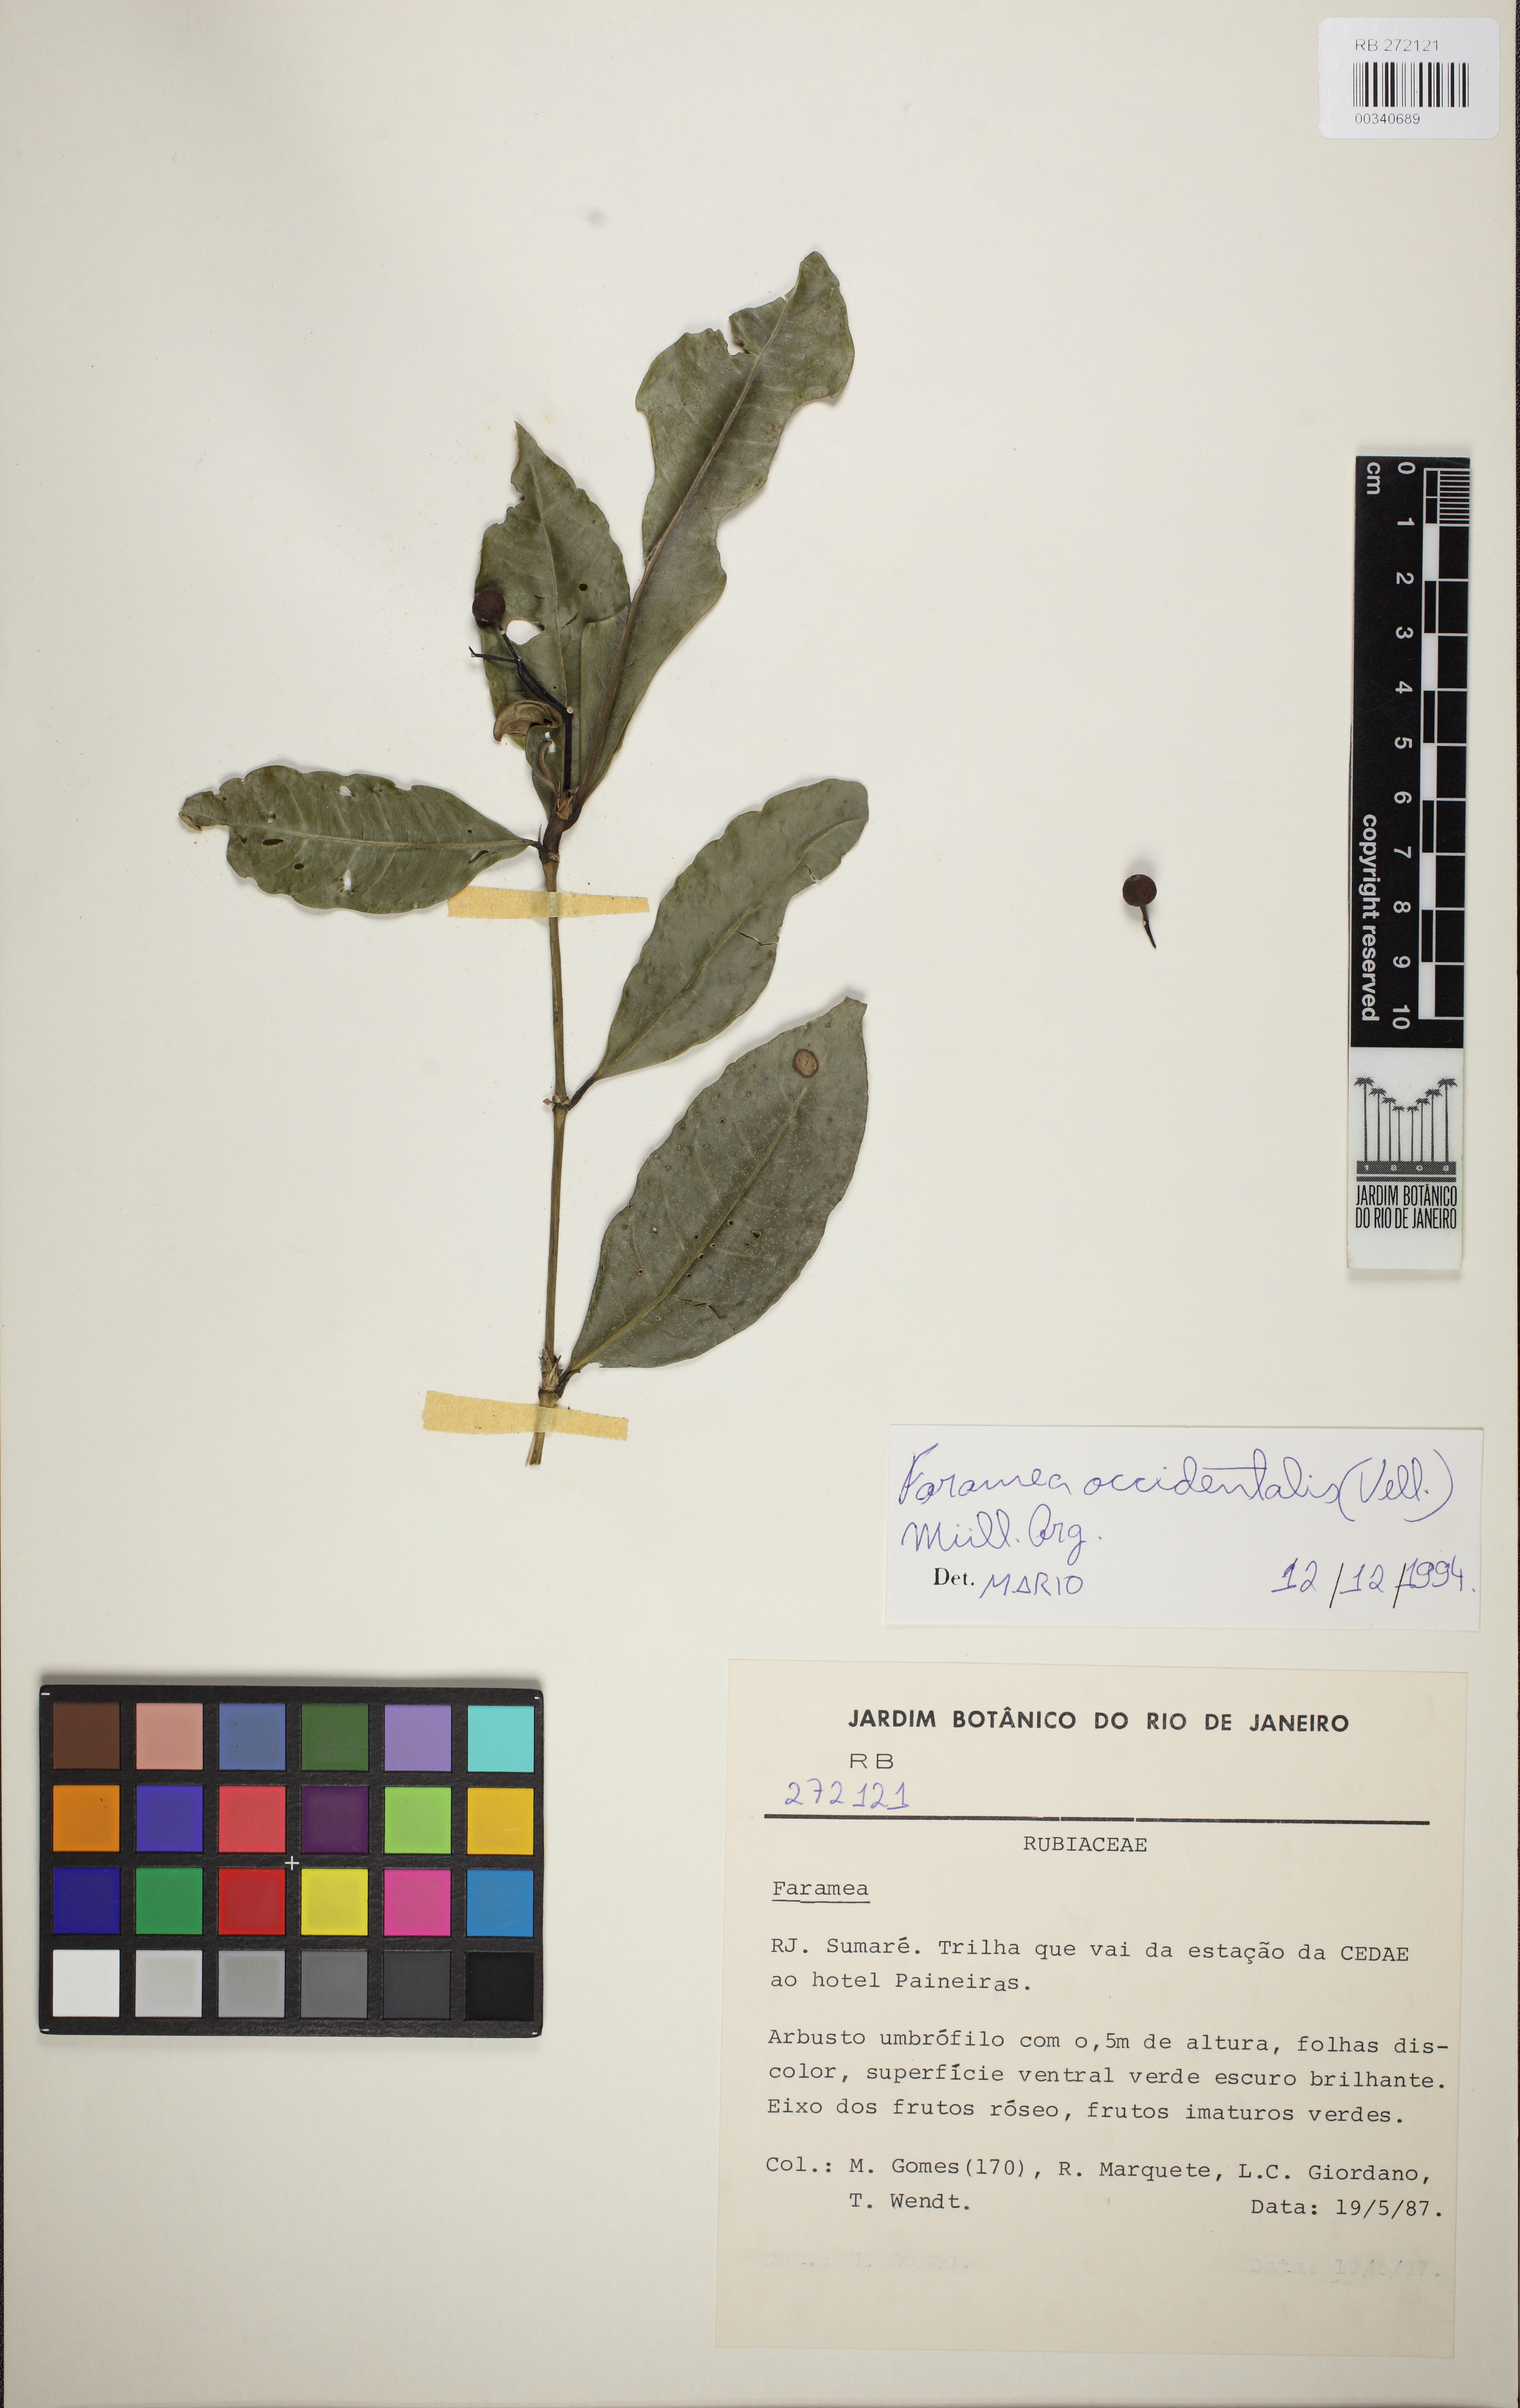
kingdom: Plantae
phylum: Tracheophyta
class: Magnoliopsida
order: Gentianales
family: Rubiaceae
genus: Faramea
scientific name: Faramea tenuiflora
